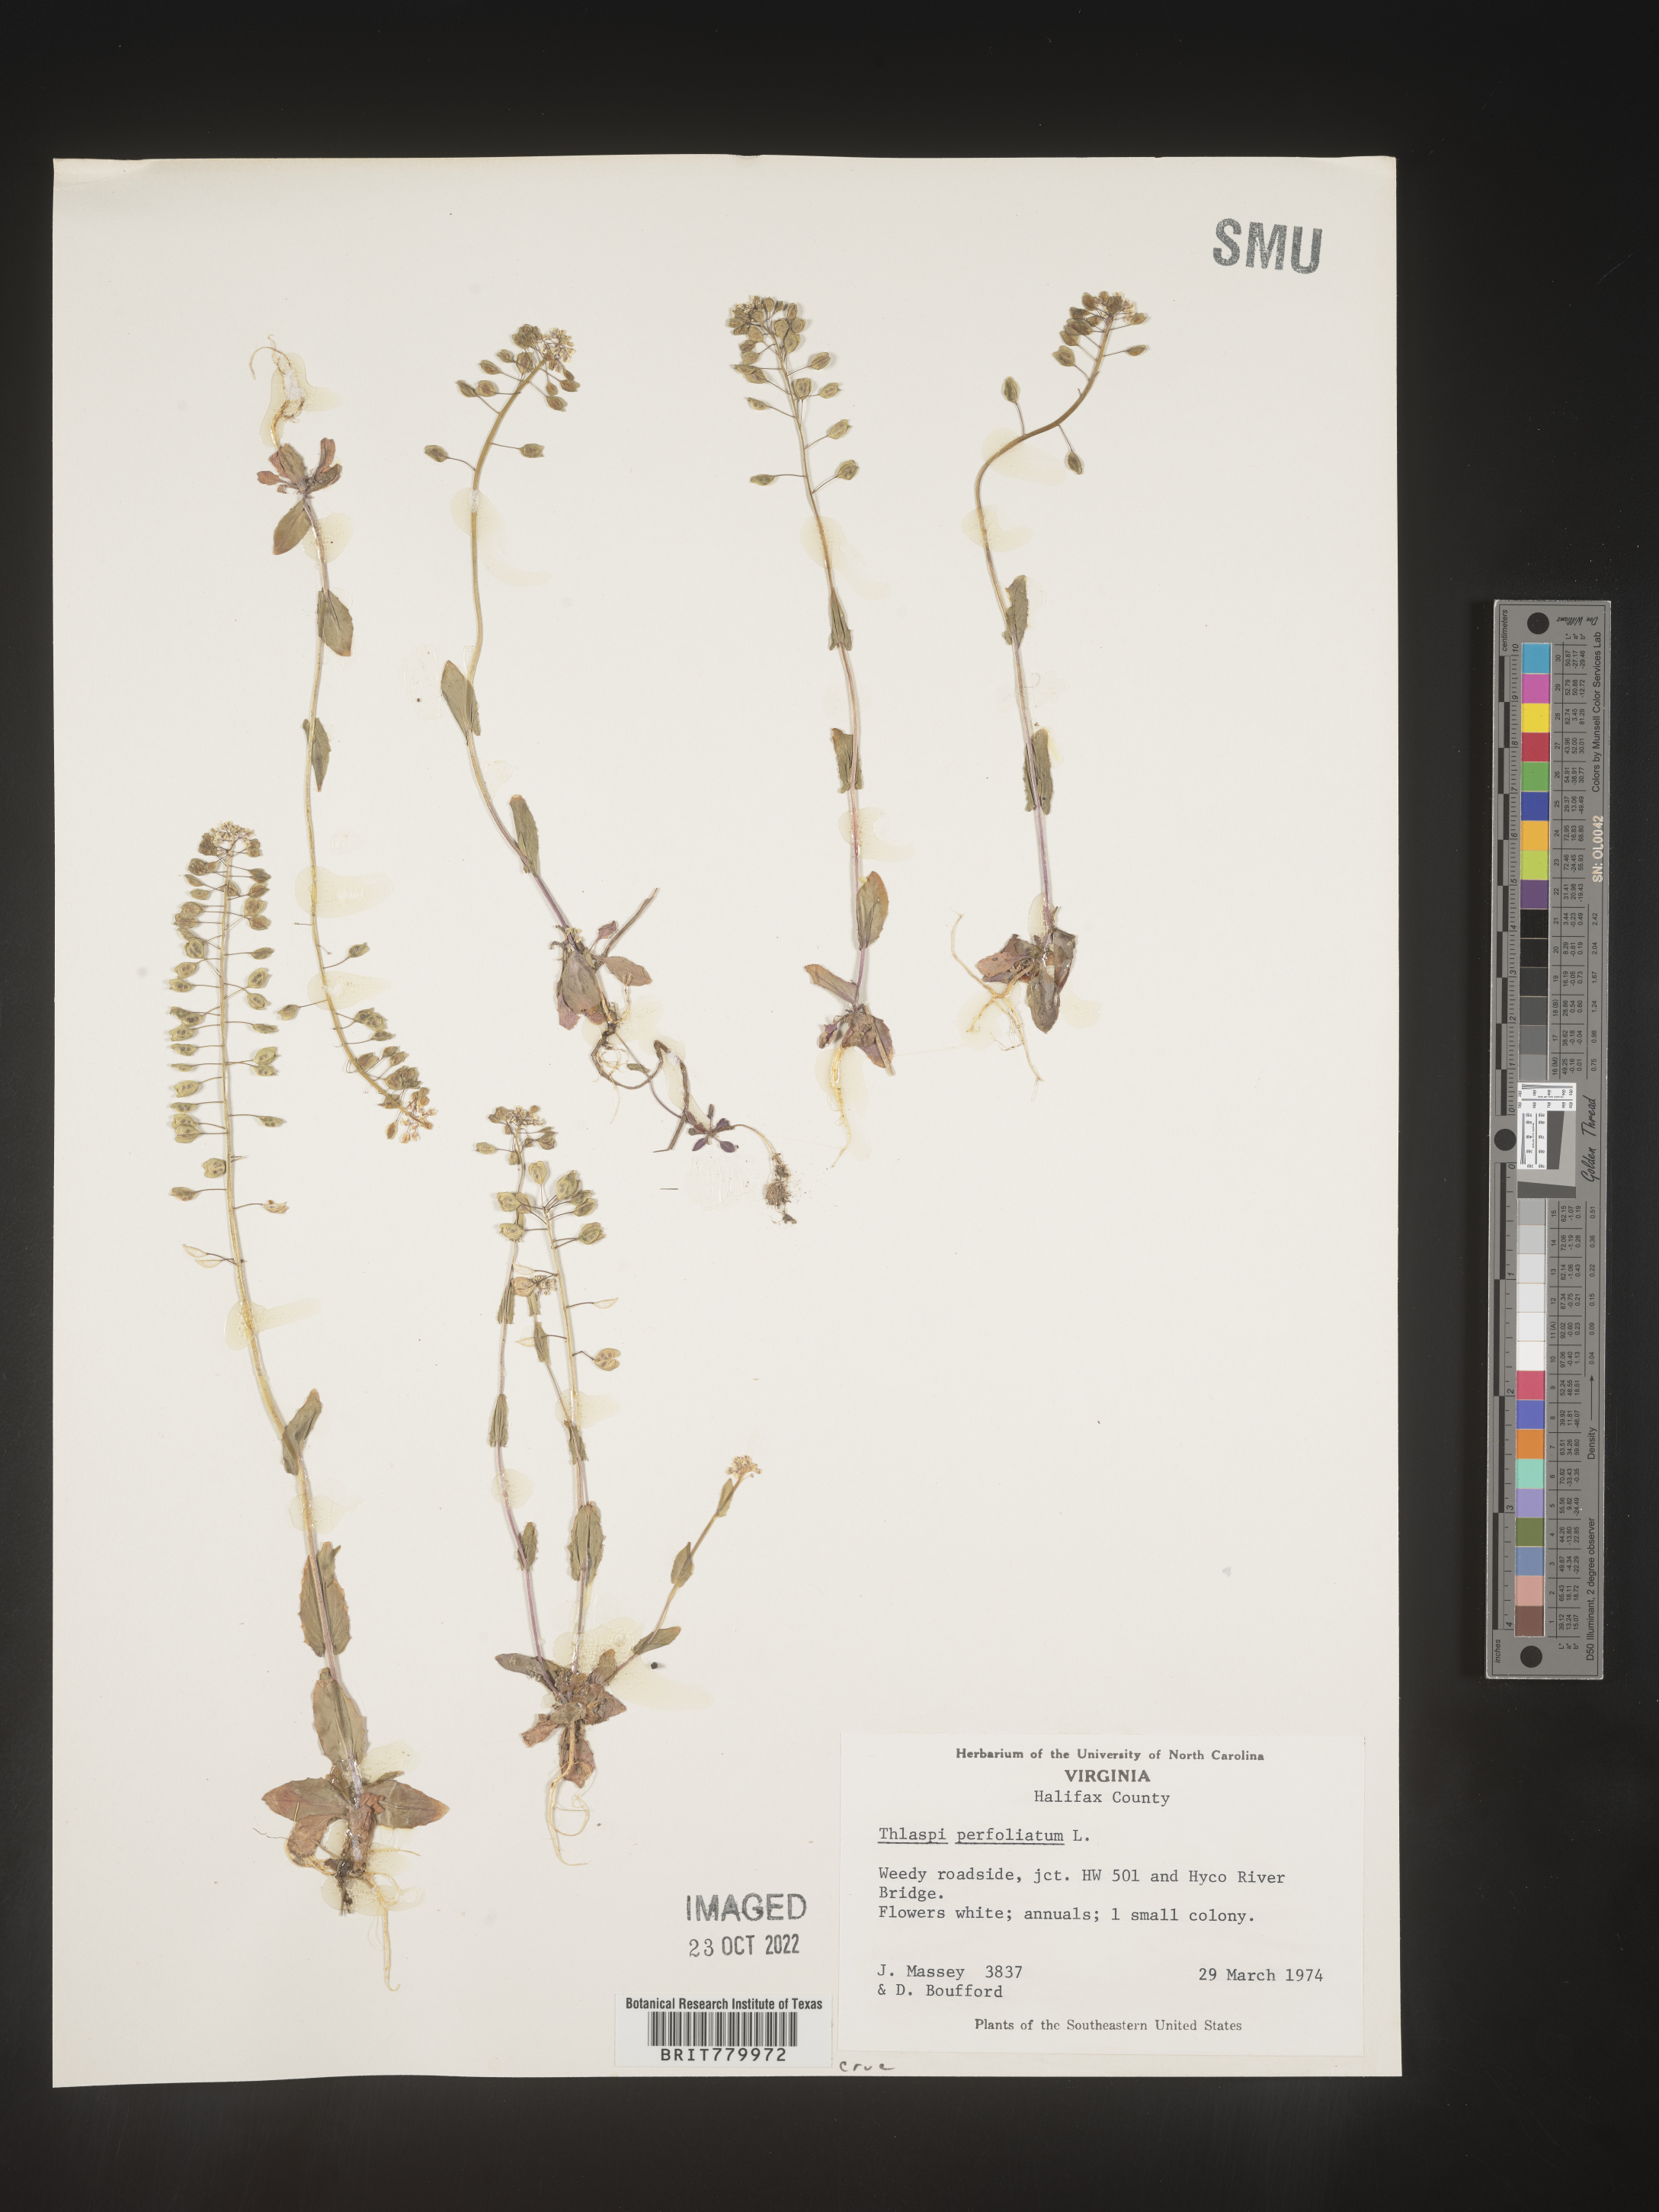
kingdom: Plantae
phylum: Tracheophyta
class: Magnoliopsida
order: Brassicales
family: Brassicaceae
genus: Thlaspi
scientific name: Thlaspi
